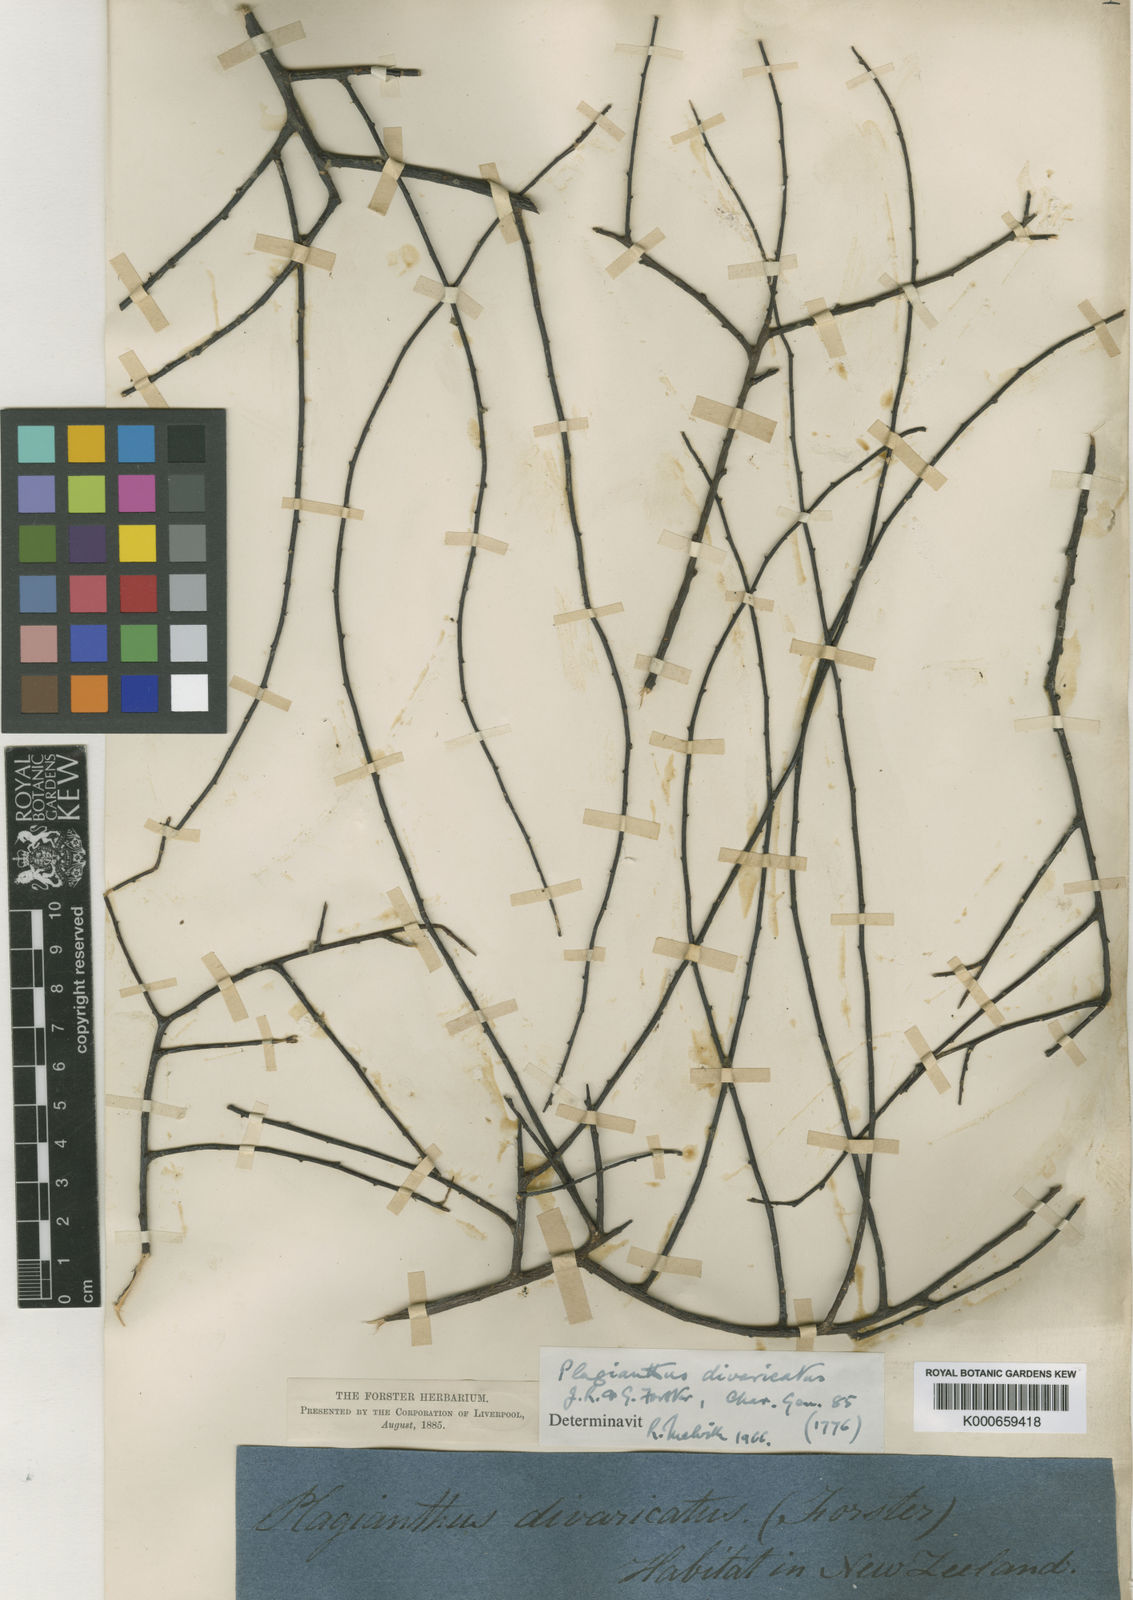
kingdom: Plantae
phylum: Tracheophyta
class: Magnoliopsida
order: Malvales
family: Malvaceae
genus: Plagianthus
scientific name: Plagianthus divaricatus
